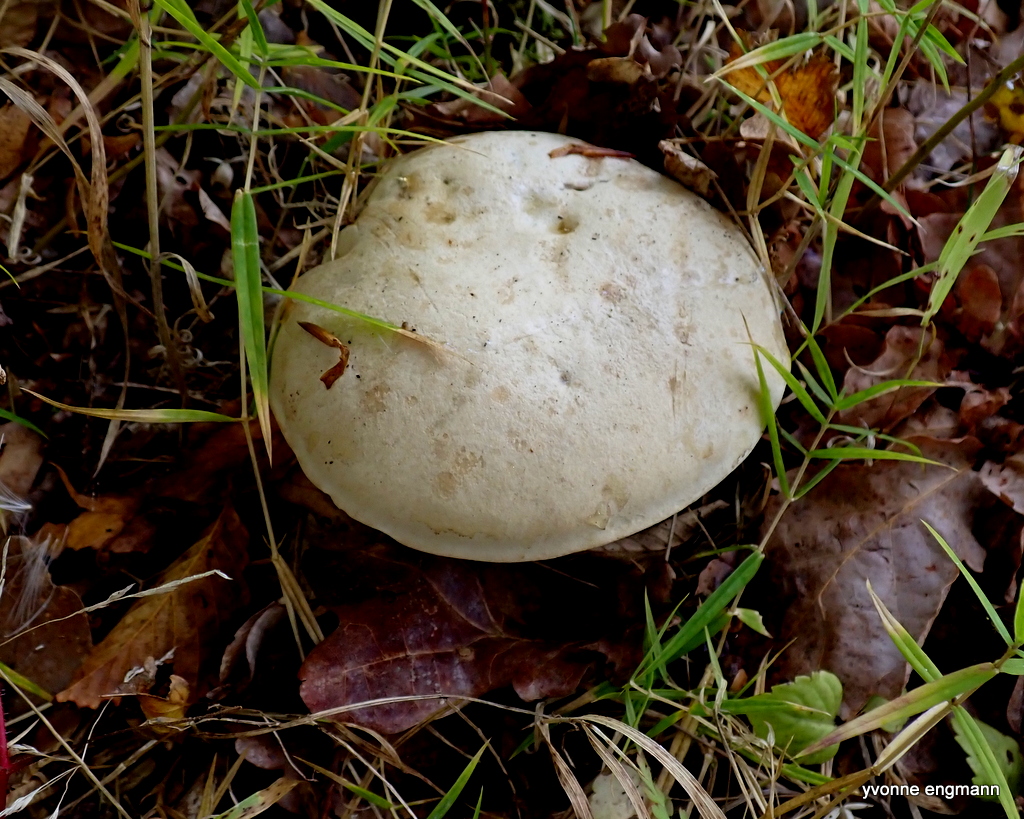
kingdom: Fungi
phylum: Basidiomycota
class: Agaricomycetes
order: Boletales
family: Boletaceae
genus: Caloboletus
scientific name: Caloboletus radicans
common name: rod-rørhat
